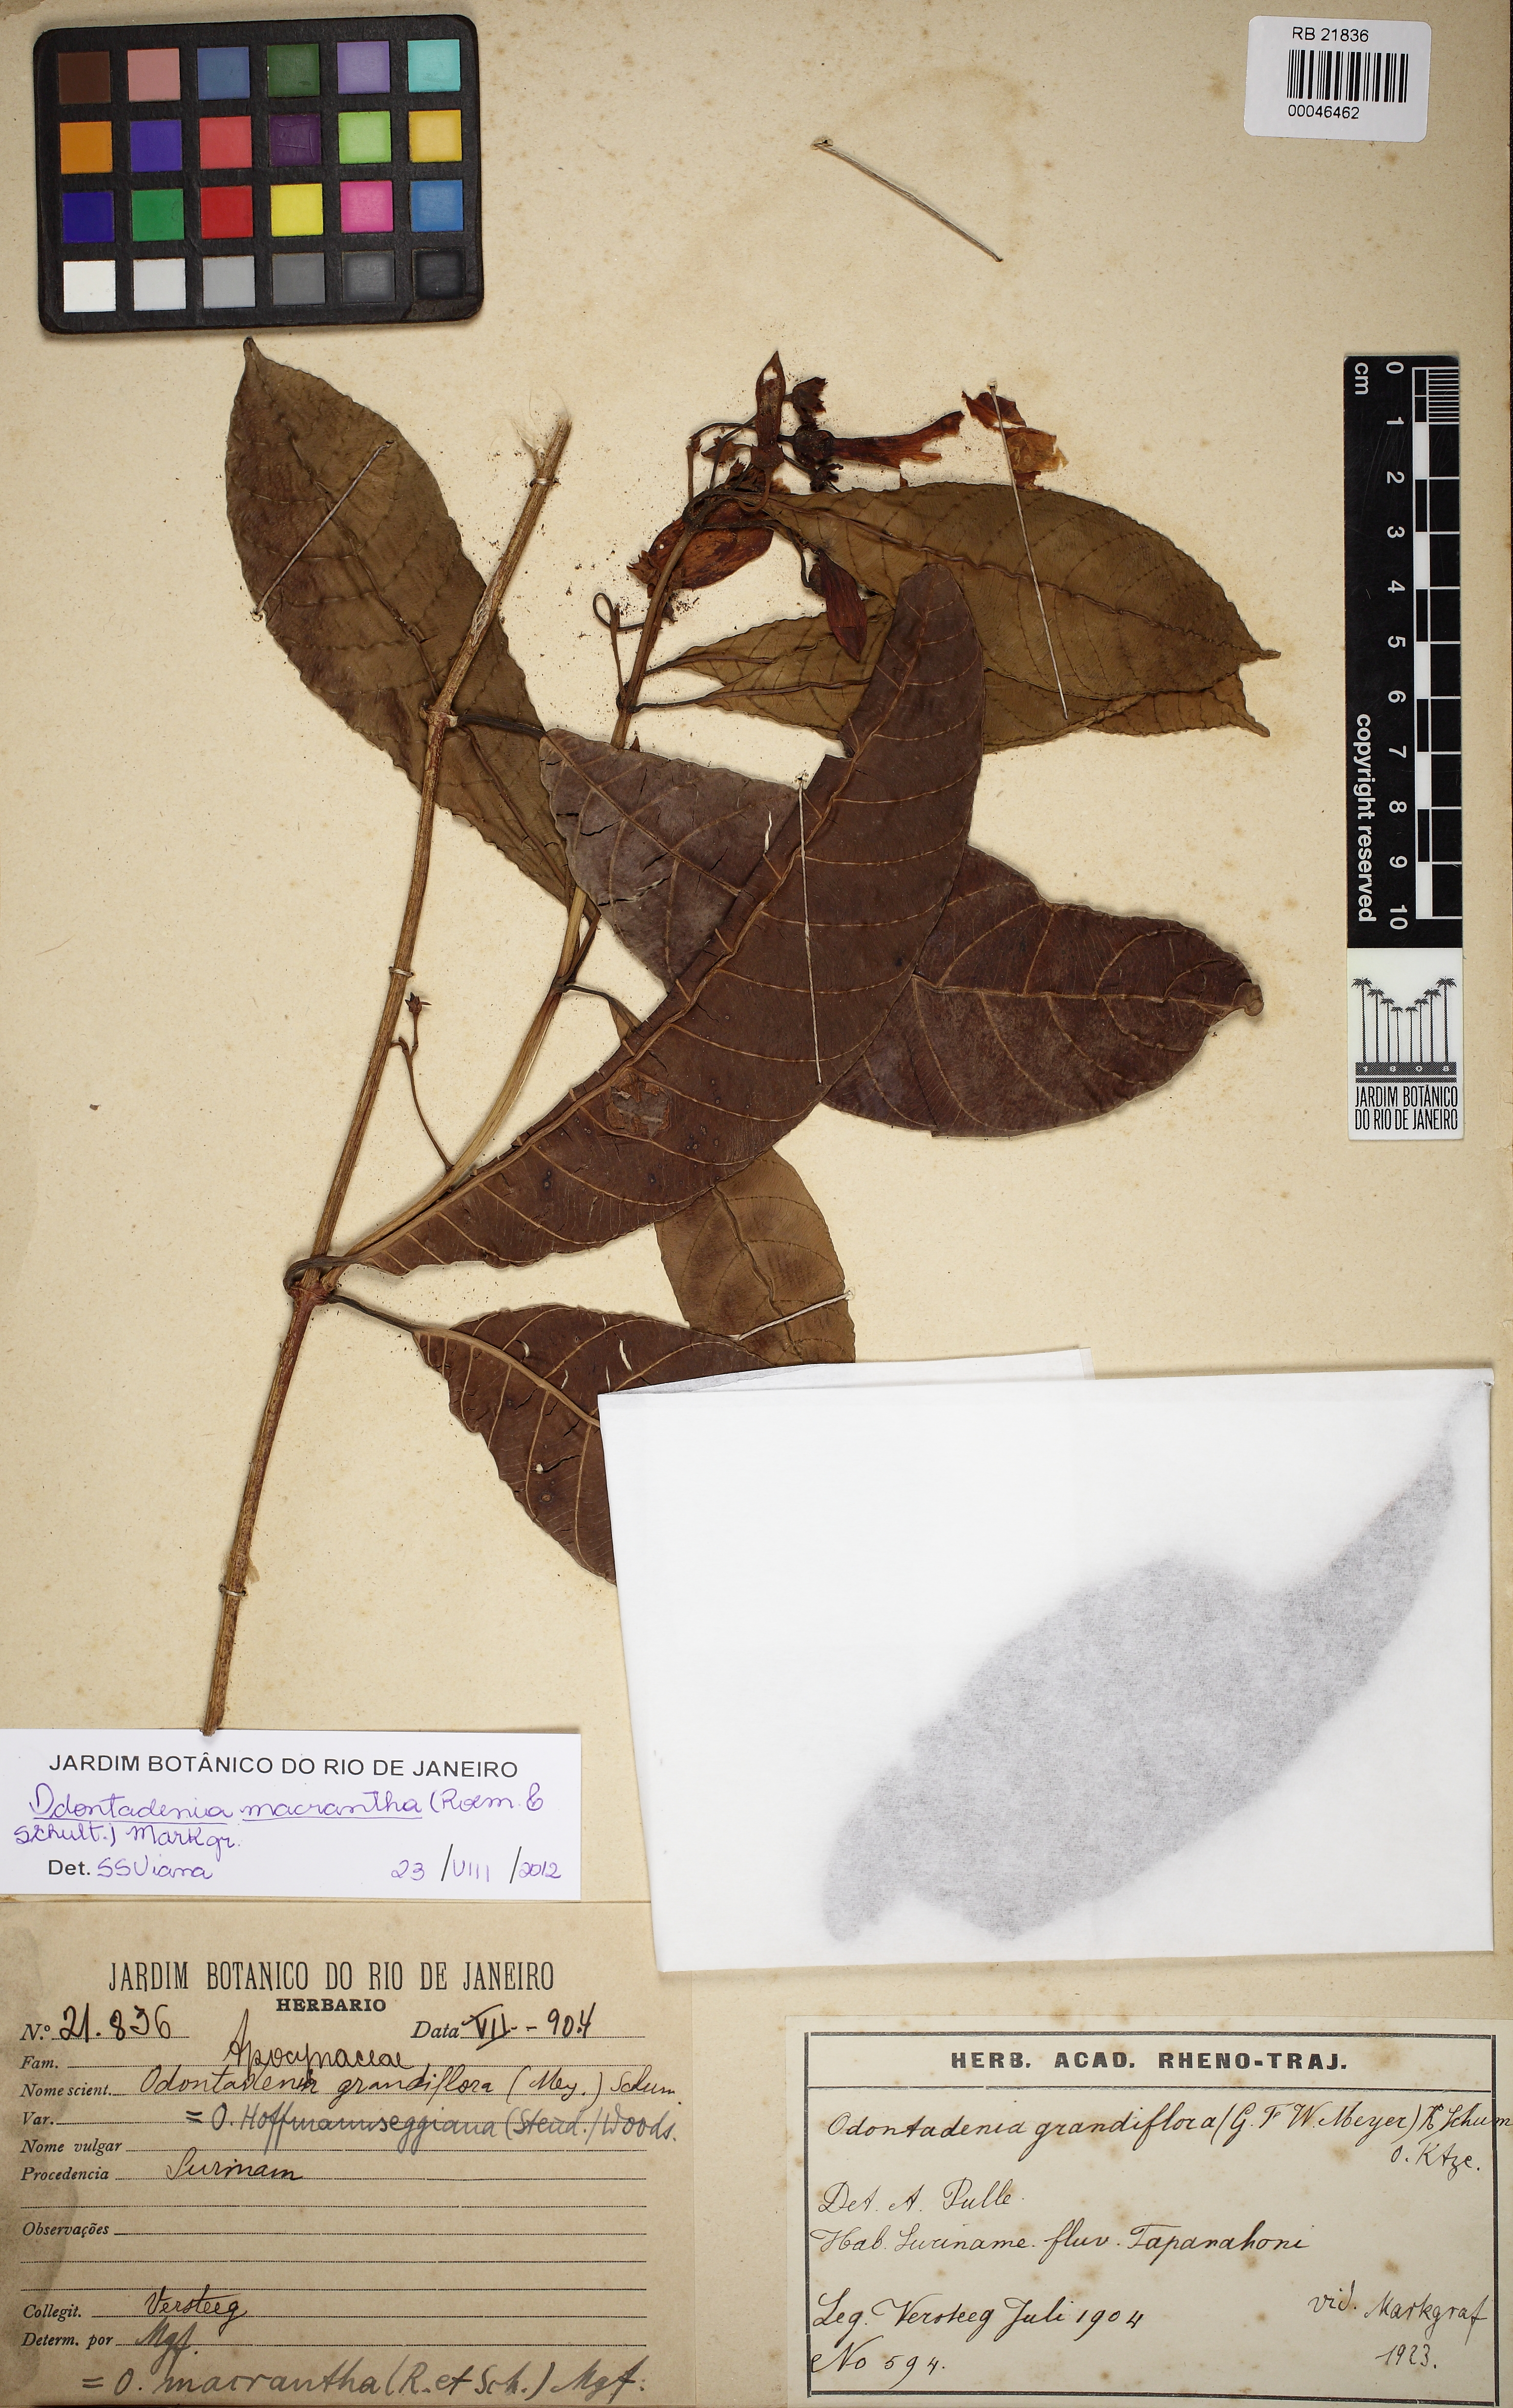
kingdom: Plantae
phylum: Tracheophyta
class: Magnoliopsida
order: Gentianales
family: Apocynaceae
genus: Odontadenia
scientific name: Odontadenia semidigyna
